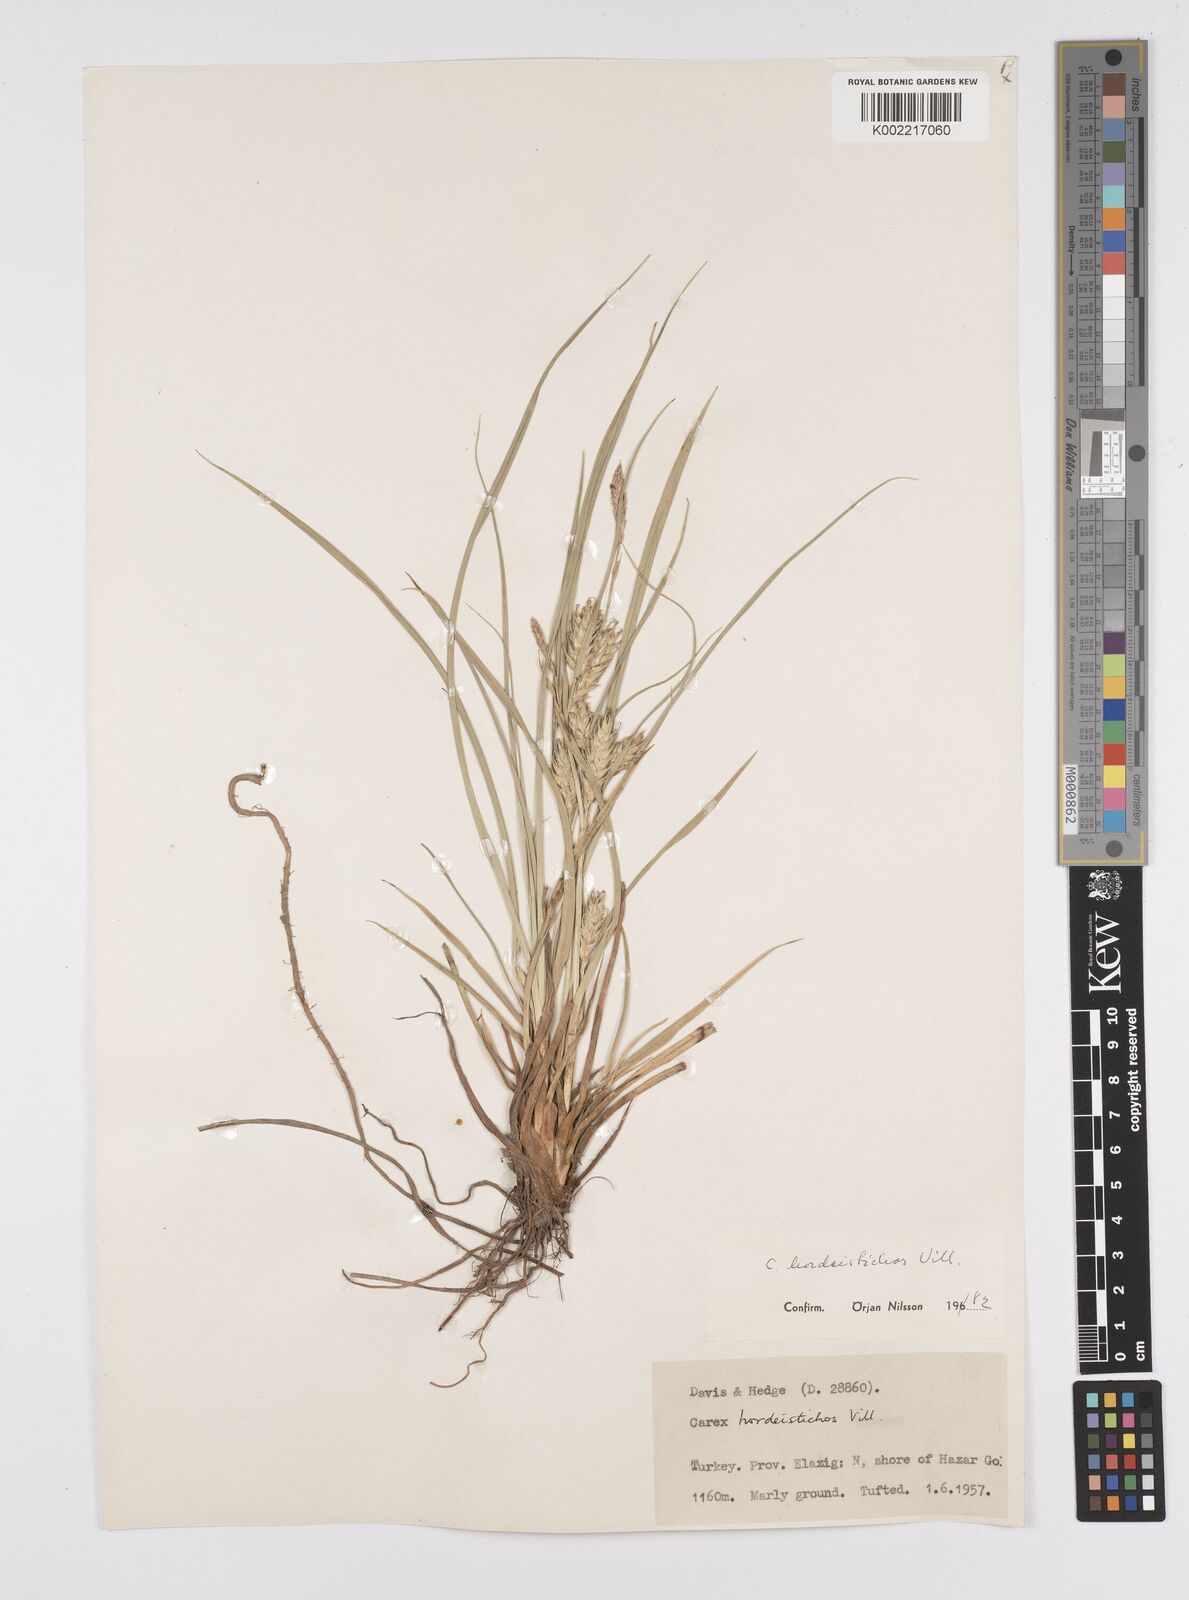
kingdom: Plantae
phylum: Tracheophyta
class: Liliopsida
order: Poales
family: Cyperaceae
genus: Carex
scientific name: Carex hordeistichos
